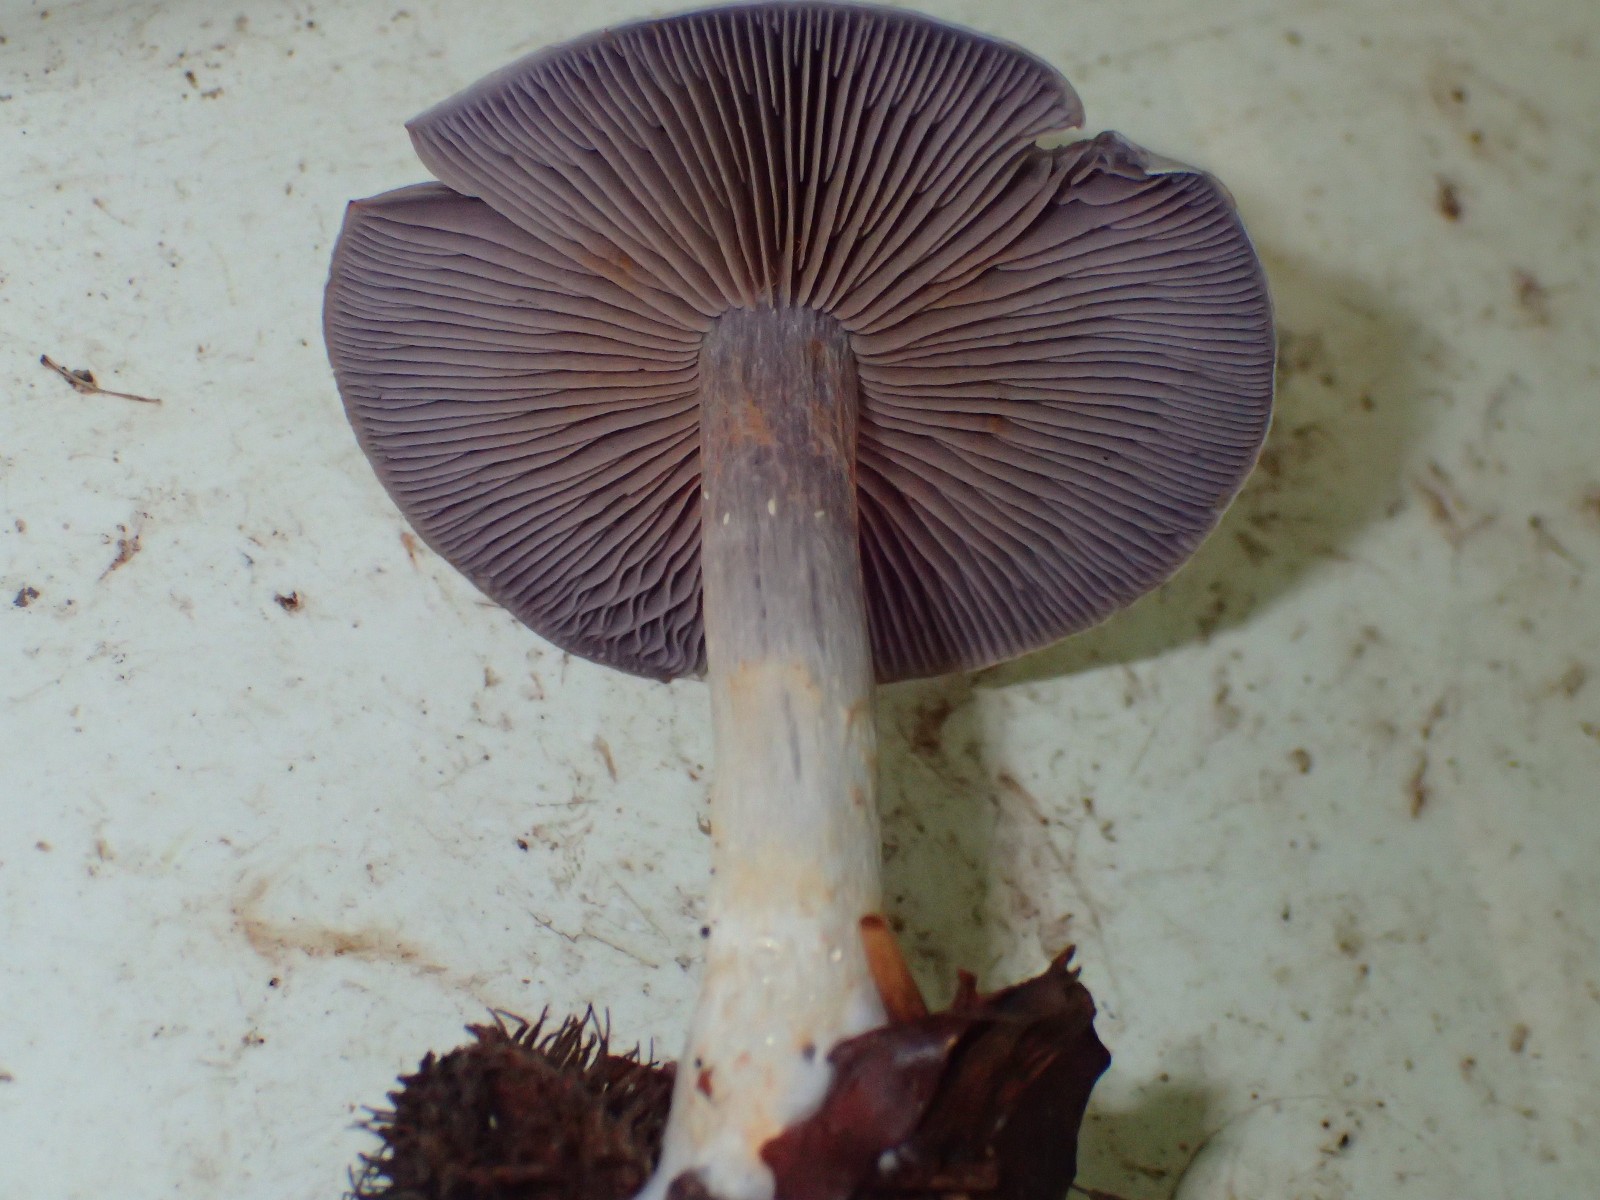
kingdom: Fungi
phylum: Basidiomycota
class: Agaricomycetes
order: Agaricales
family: Cortinariaceae
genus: Cortinarius
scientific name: Cortinarius
